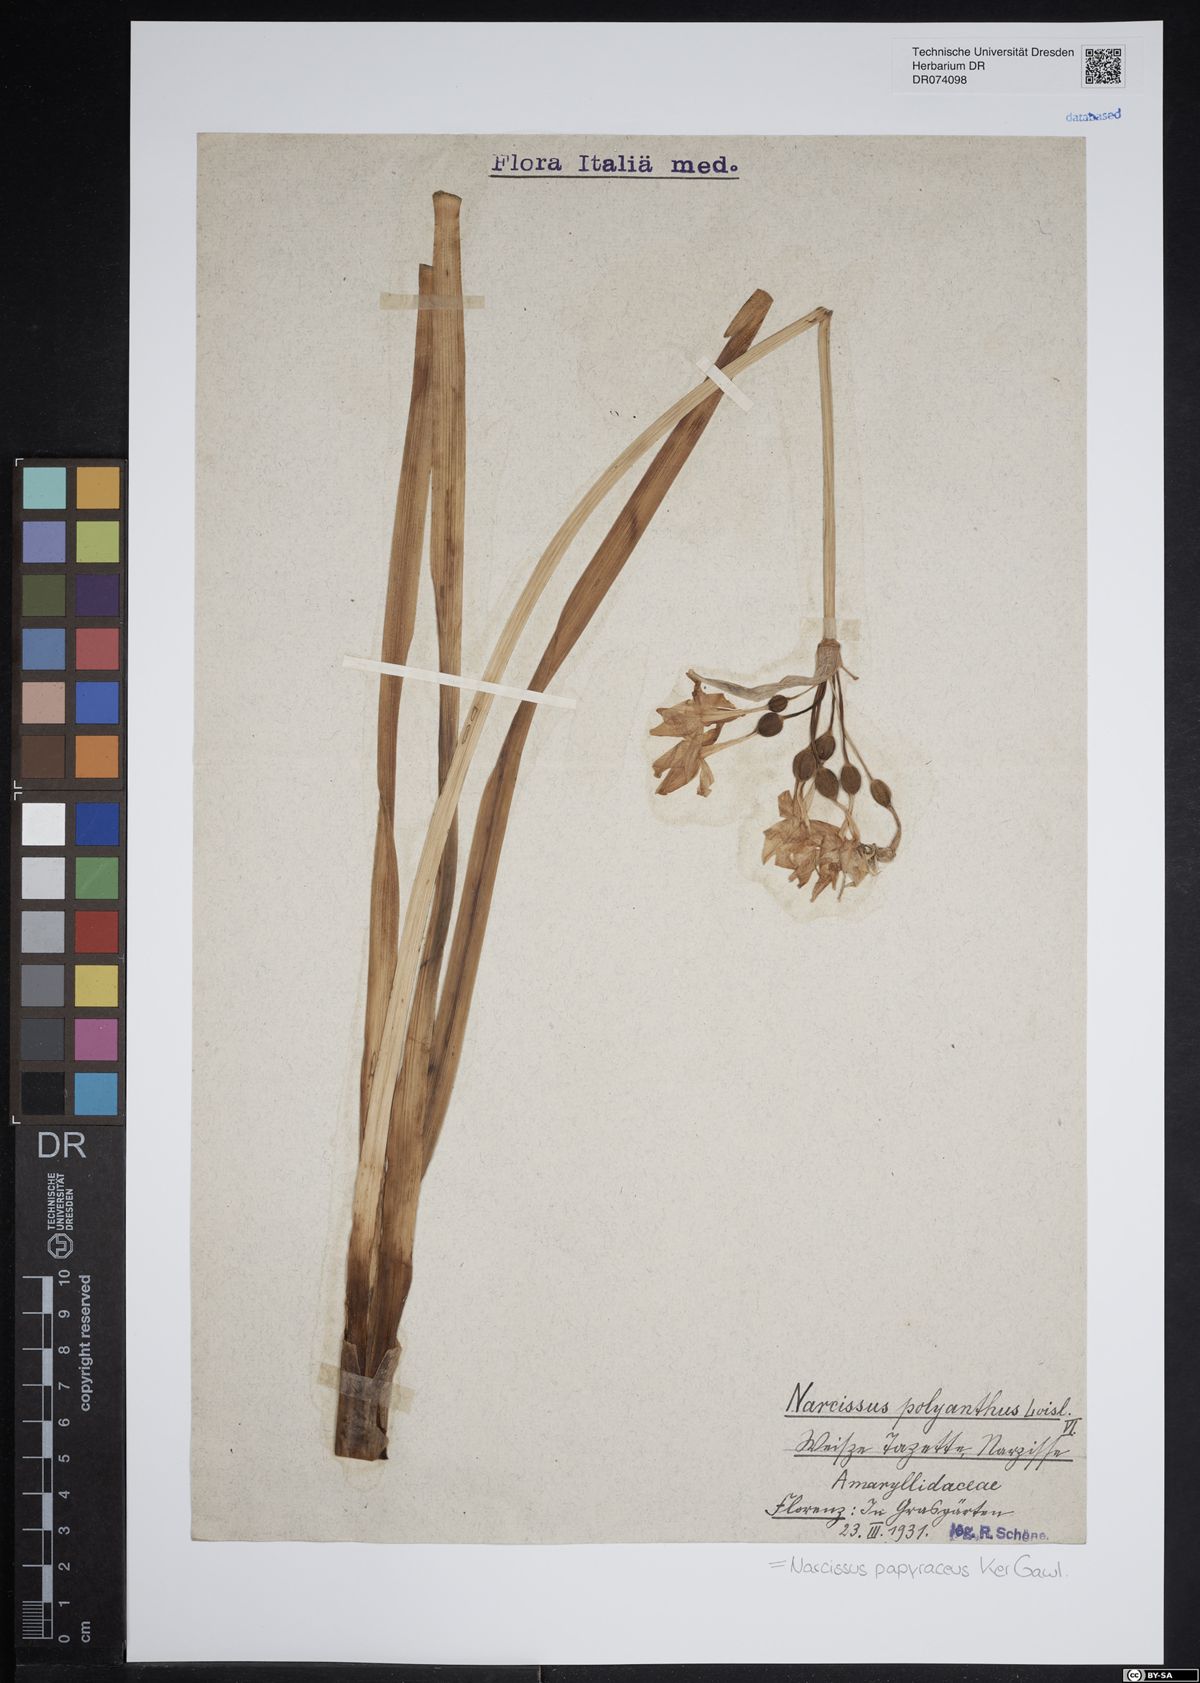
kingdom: Plantae
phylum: Tracheophyta
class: Liliopsida
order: Asparagales
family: Amaryllidaceae
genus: Narcissus
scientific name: Narcissus papyraceus
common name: Paper-white daffodil
